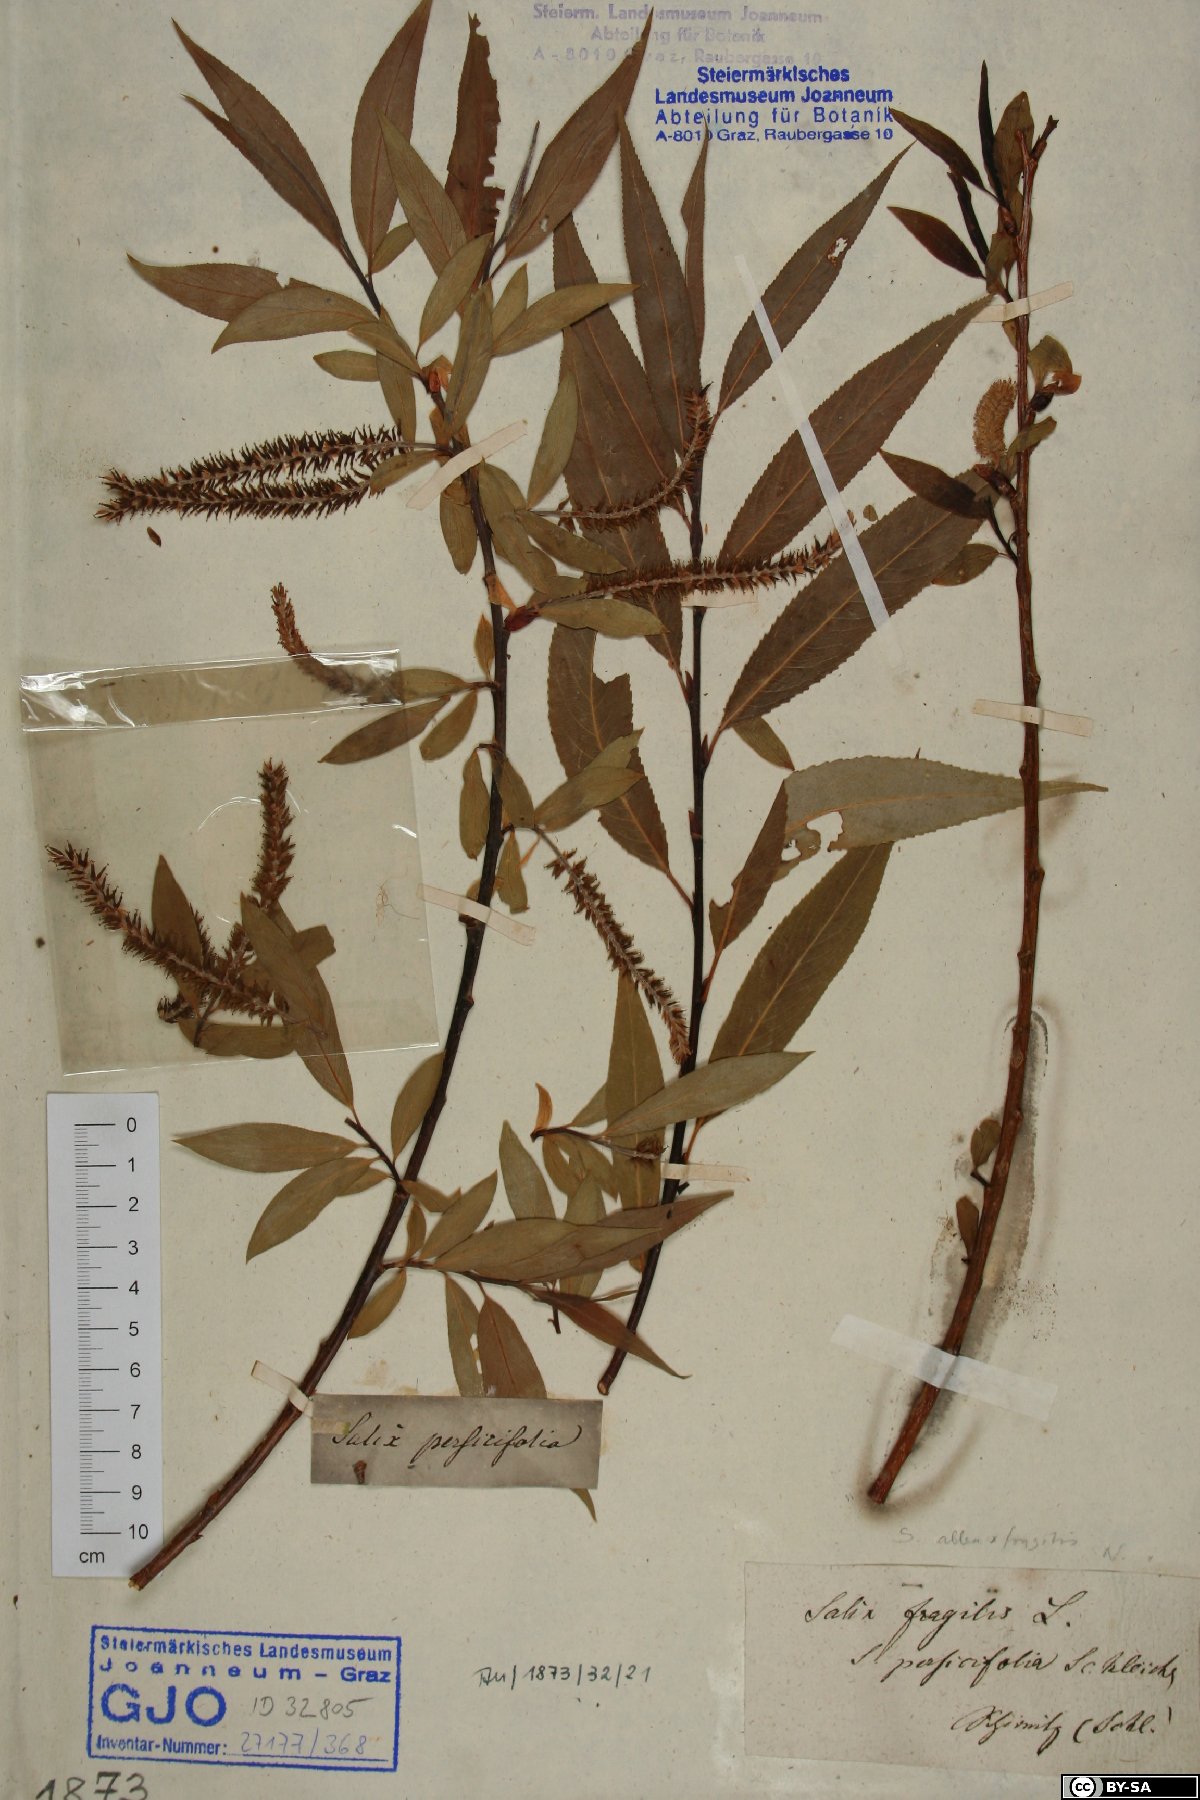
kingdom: Plantae
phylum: Tracheophyta
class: Magnoliopsida
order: Malpighiales
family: Salicaceae
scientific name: Salicaceae
